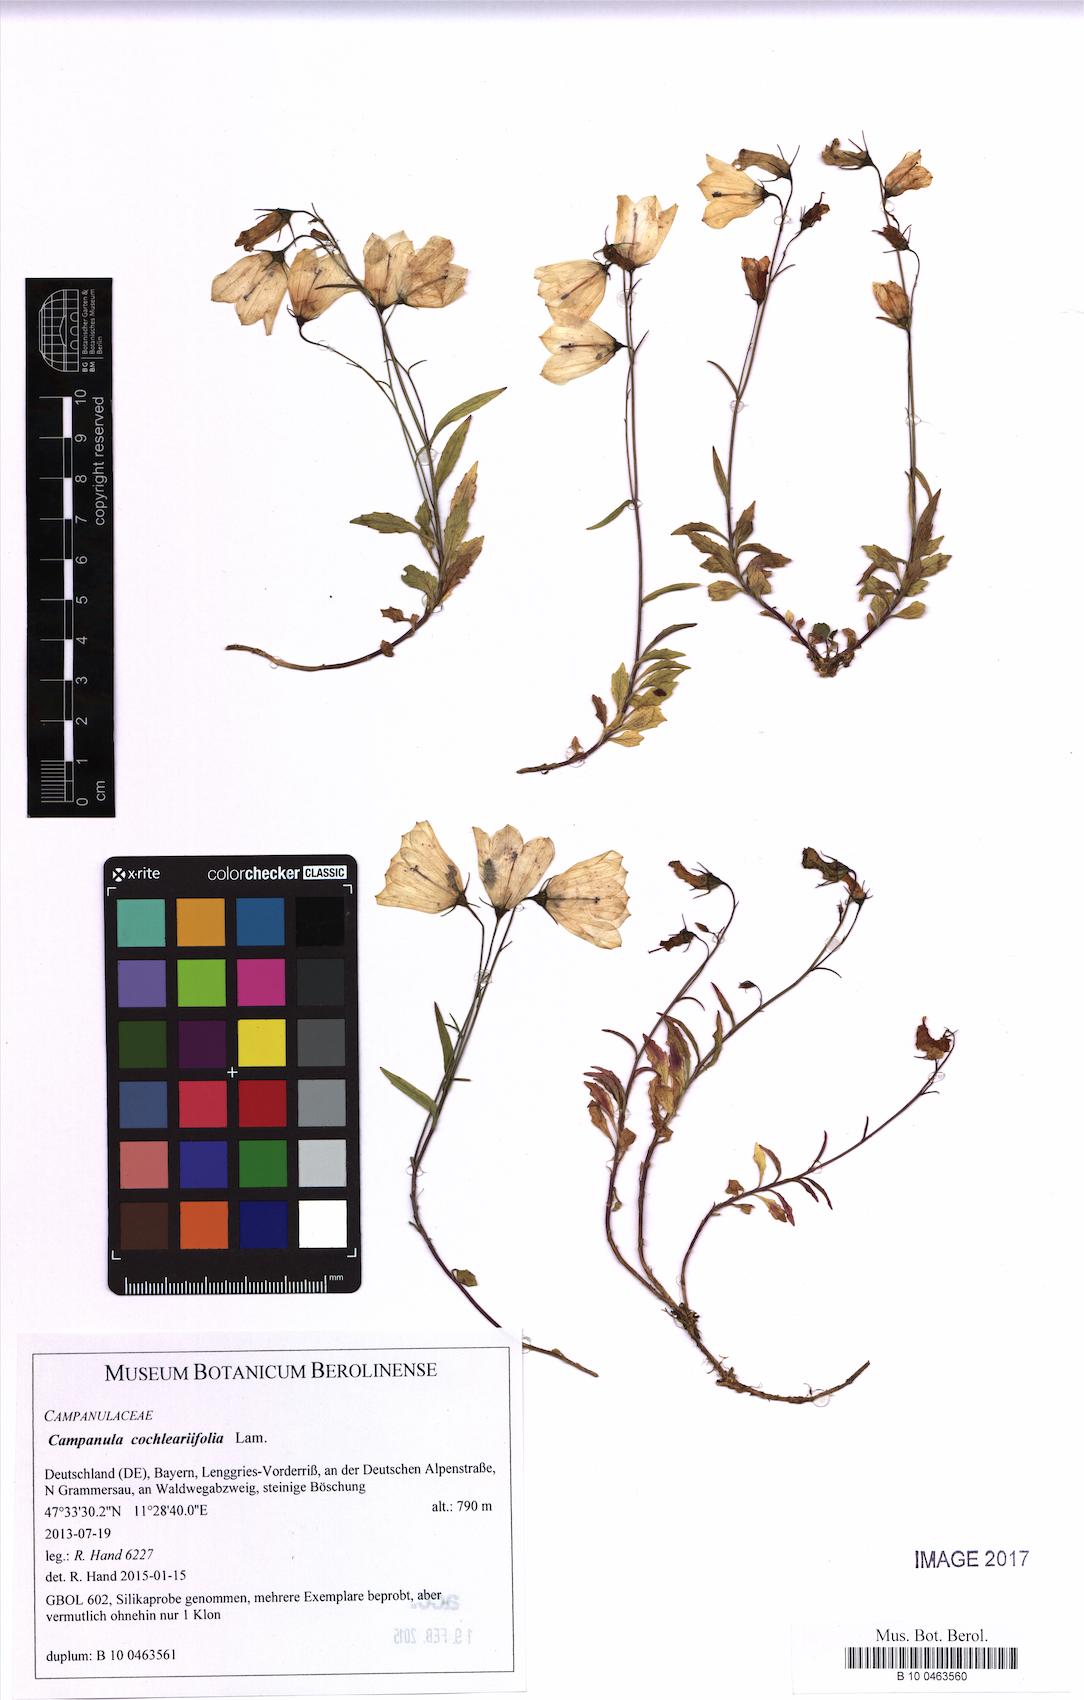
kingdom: Plantae
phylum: Tracheophyta
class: Magnoliopsida
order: Asterales
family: Campanulaceae
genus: Campanula
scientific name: Campanula cochleariifolia
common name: Fairies'-thimbles
